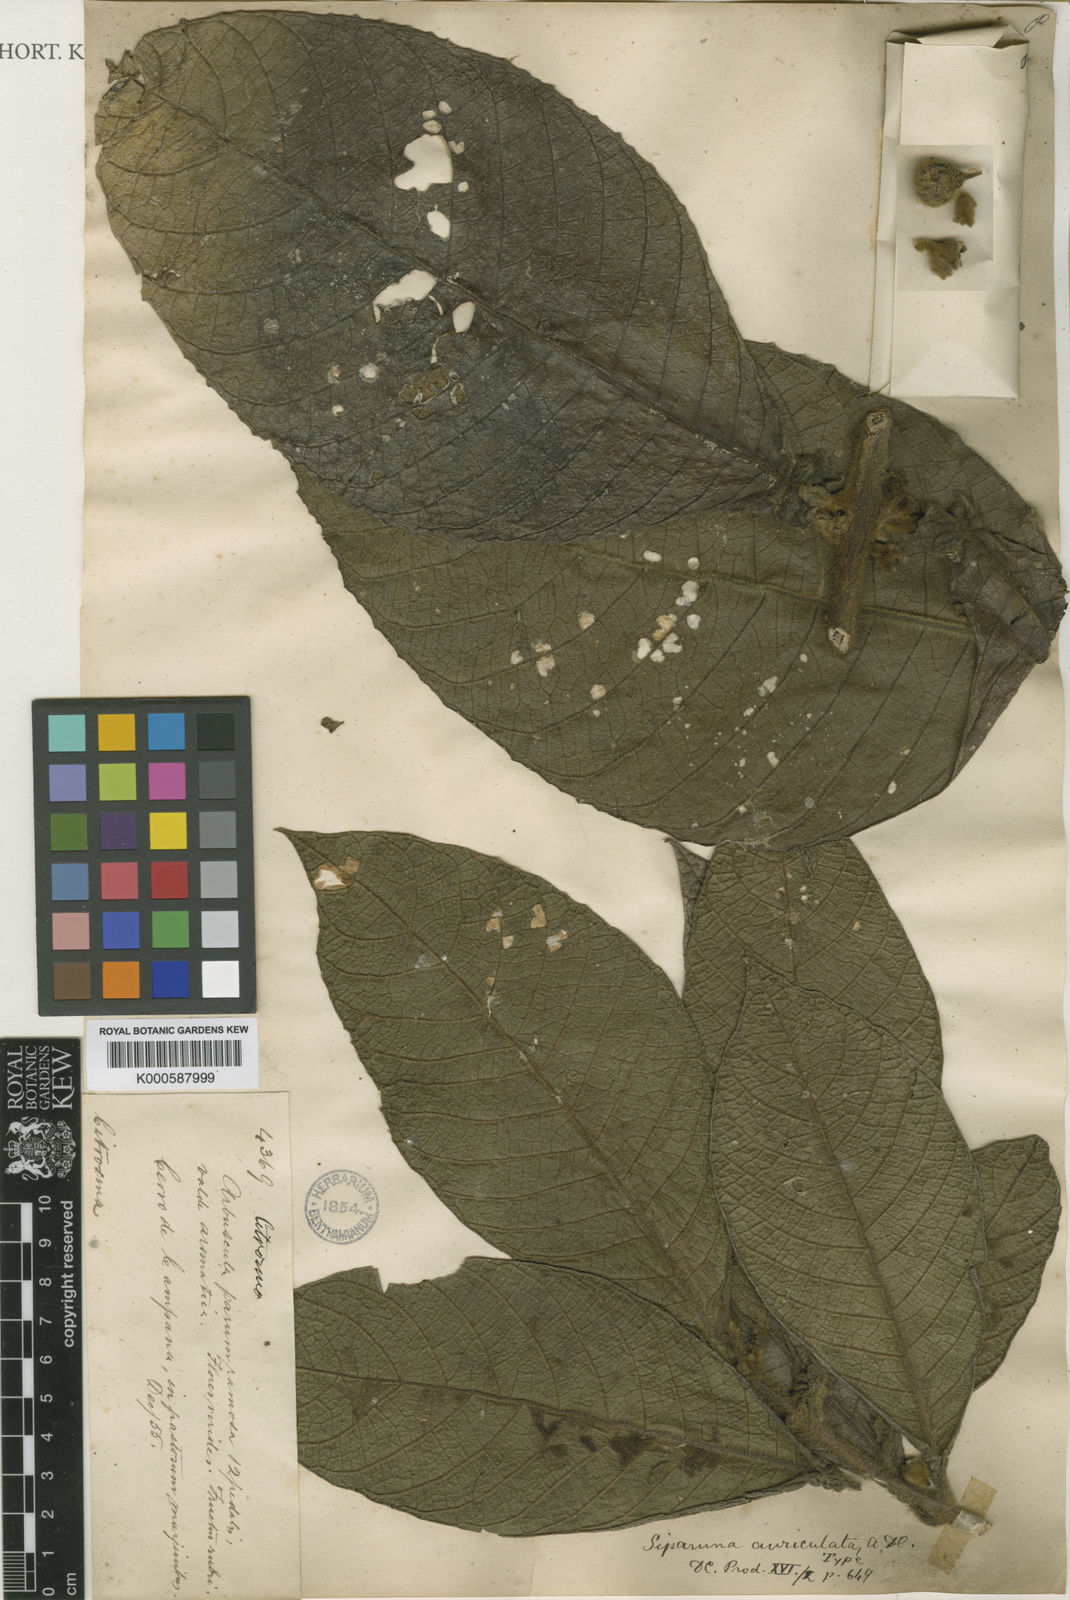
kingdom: Plantae
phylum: Tracheophyta
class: Magnoliopsida
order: Laurales
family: Siparunaceae
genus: Siparuna
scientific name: Siparuna grandiflora
